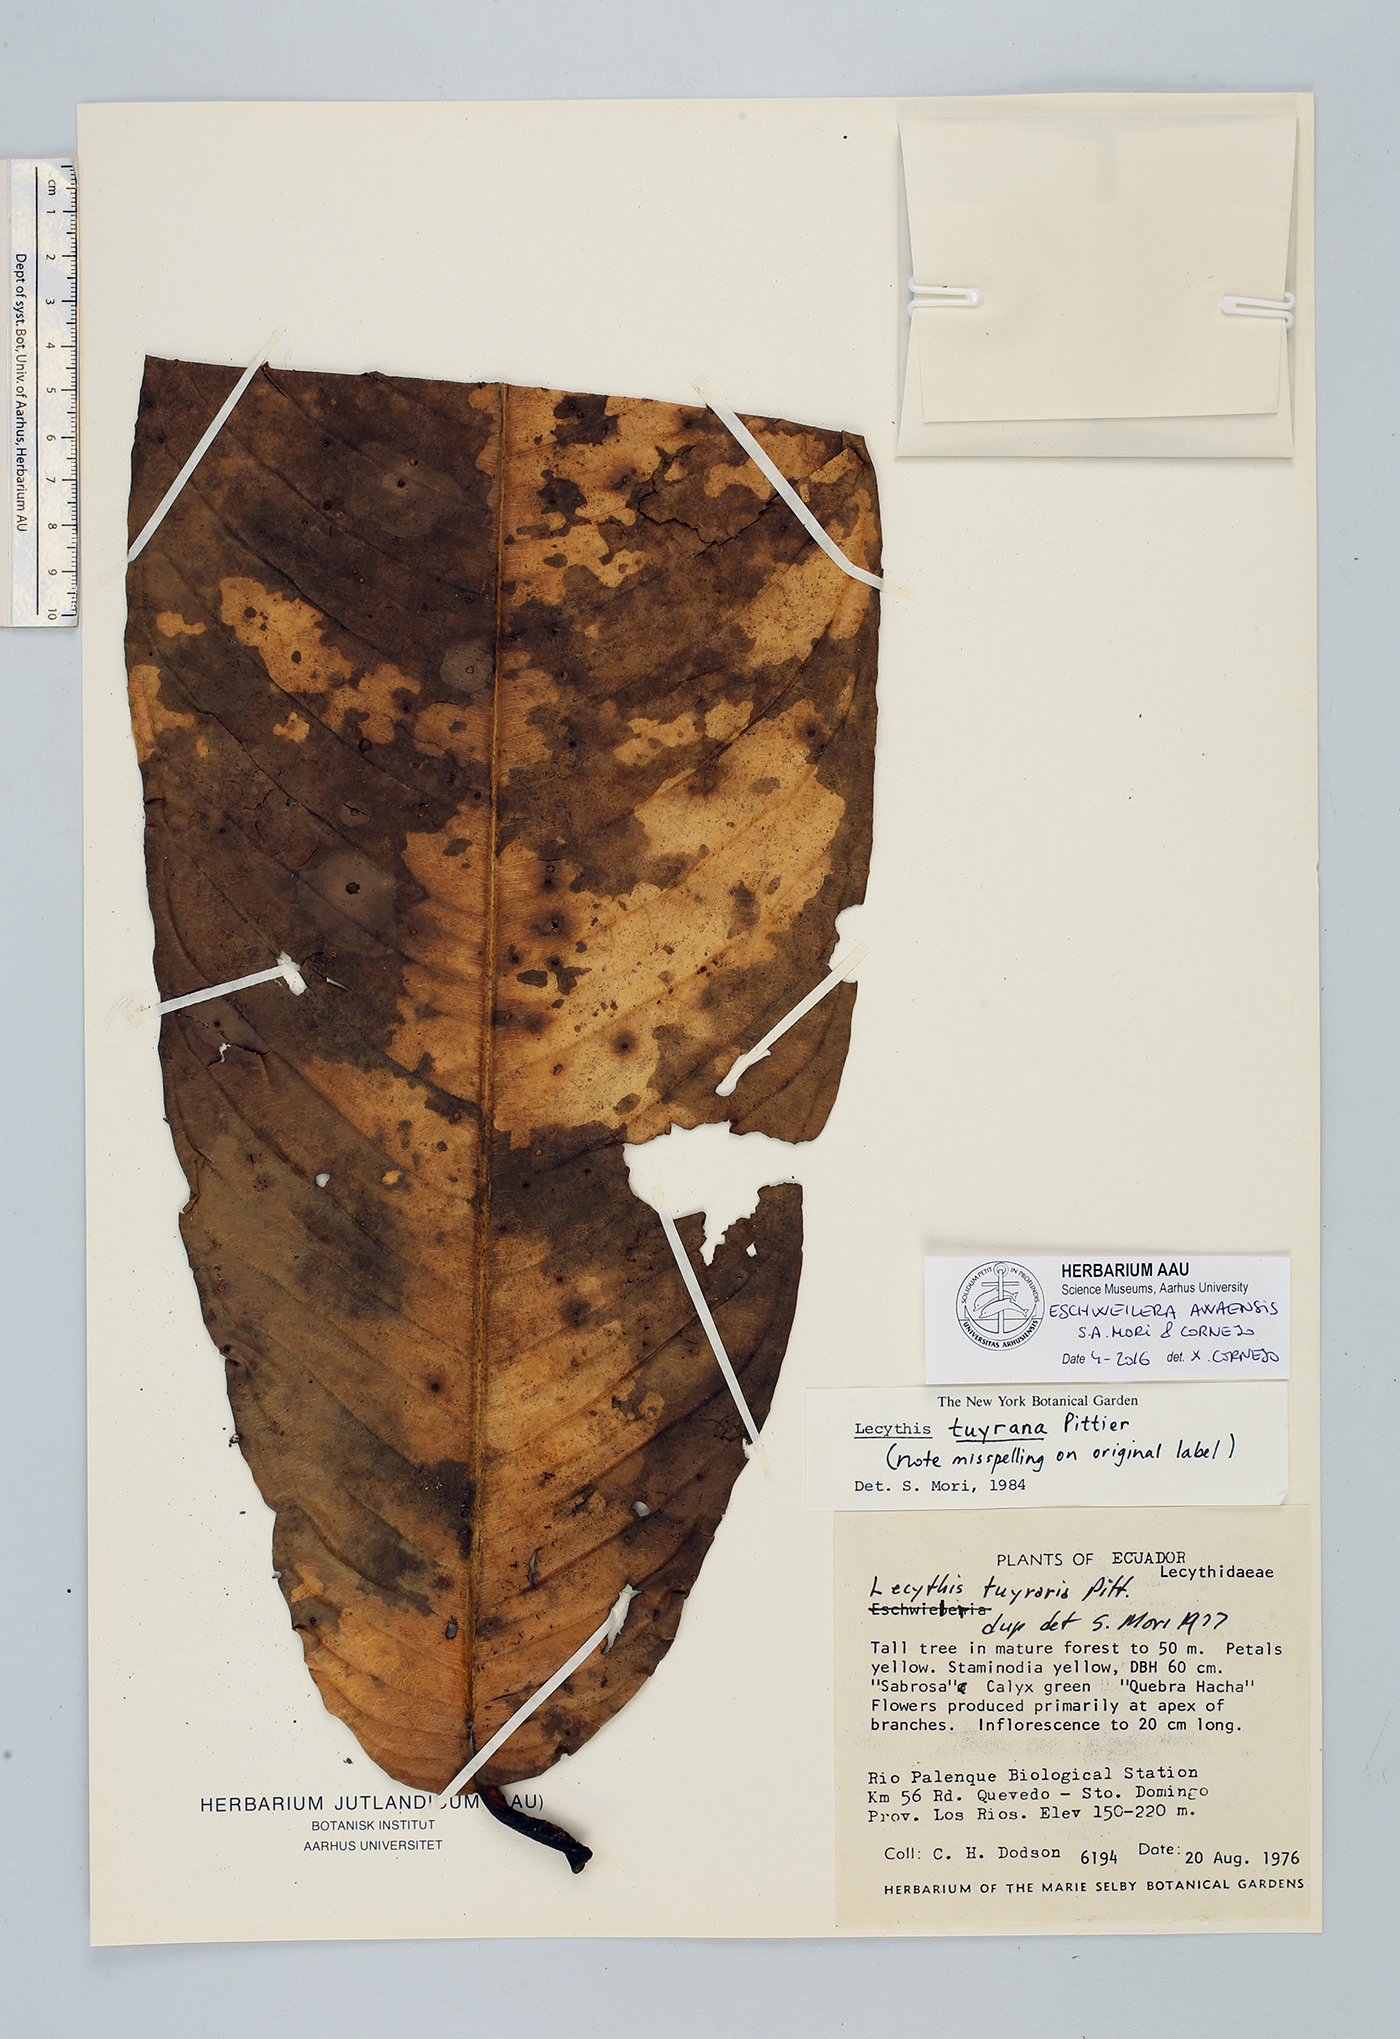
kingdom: Plantae
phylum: Tracheophyta
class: Magnoliopsida
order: Ericales
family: Lecythidaceae
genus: Eschweilera
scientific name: Eschweilera awaensis
